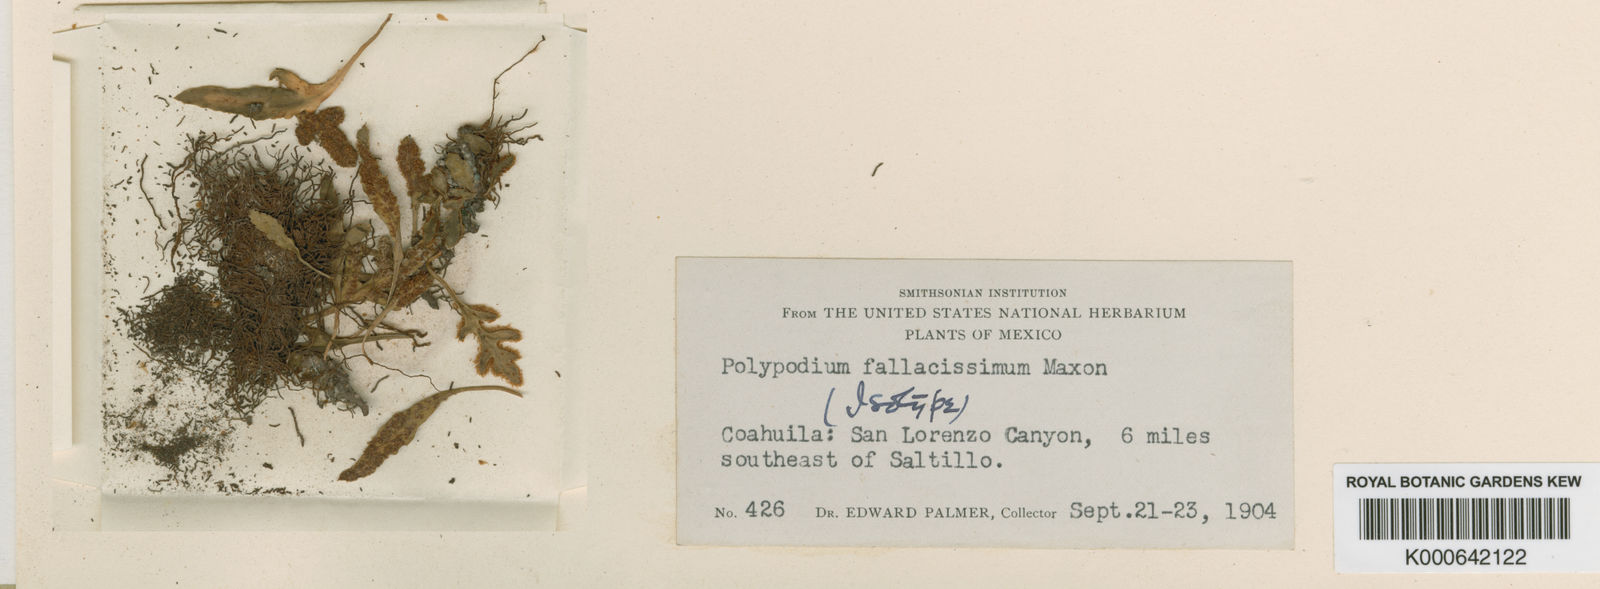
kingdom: Plantae
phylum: Tracheophyta
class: Polypodiopsida
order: Polypodiales
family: Polypodiaceae
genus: Pleopeltis
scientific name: Pleopeltis fallacissima
